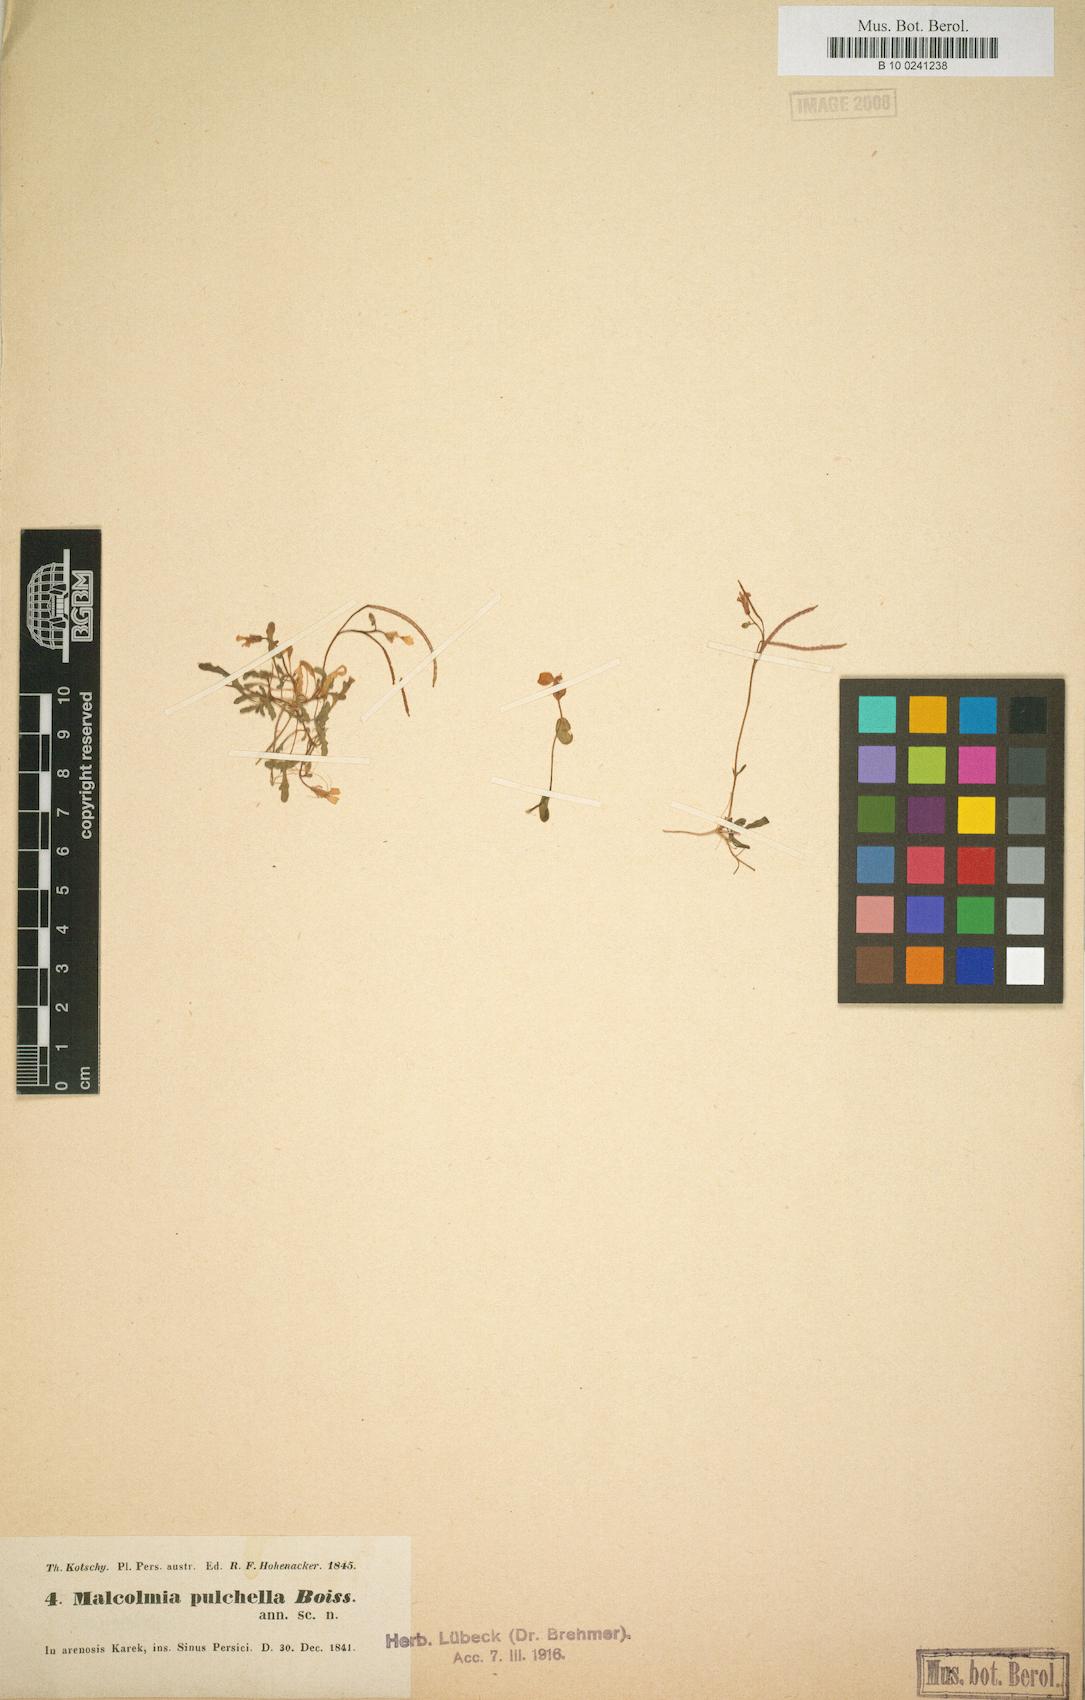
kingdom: Plantae
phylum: Tracheophyta
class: Magnoliopsida
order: Brassicales
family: Brassicaceae
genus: Maresia
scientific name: Maresia pulchella
